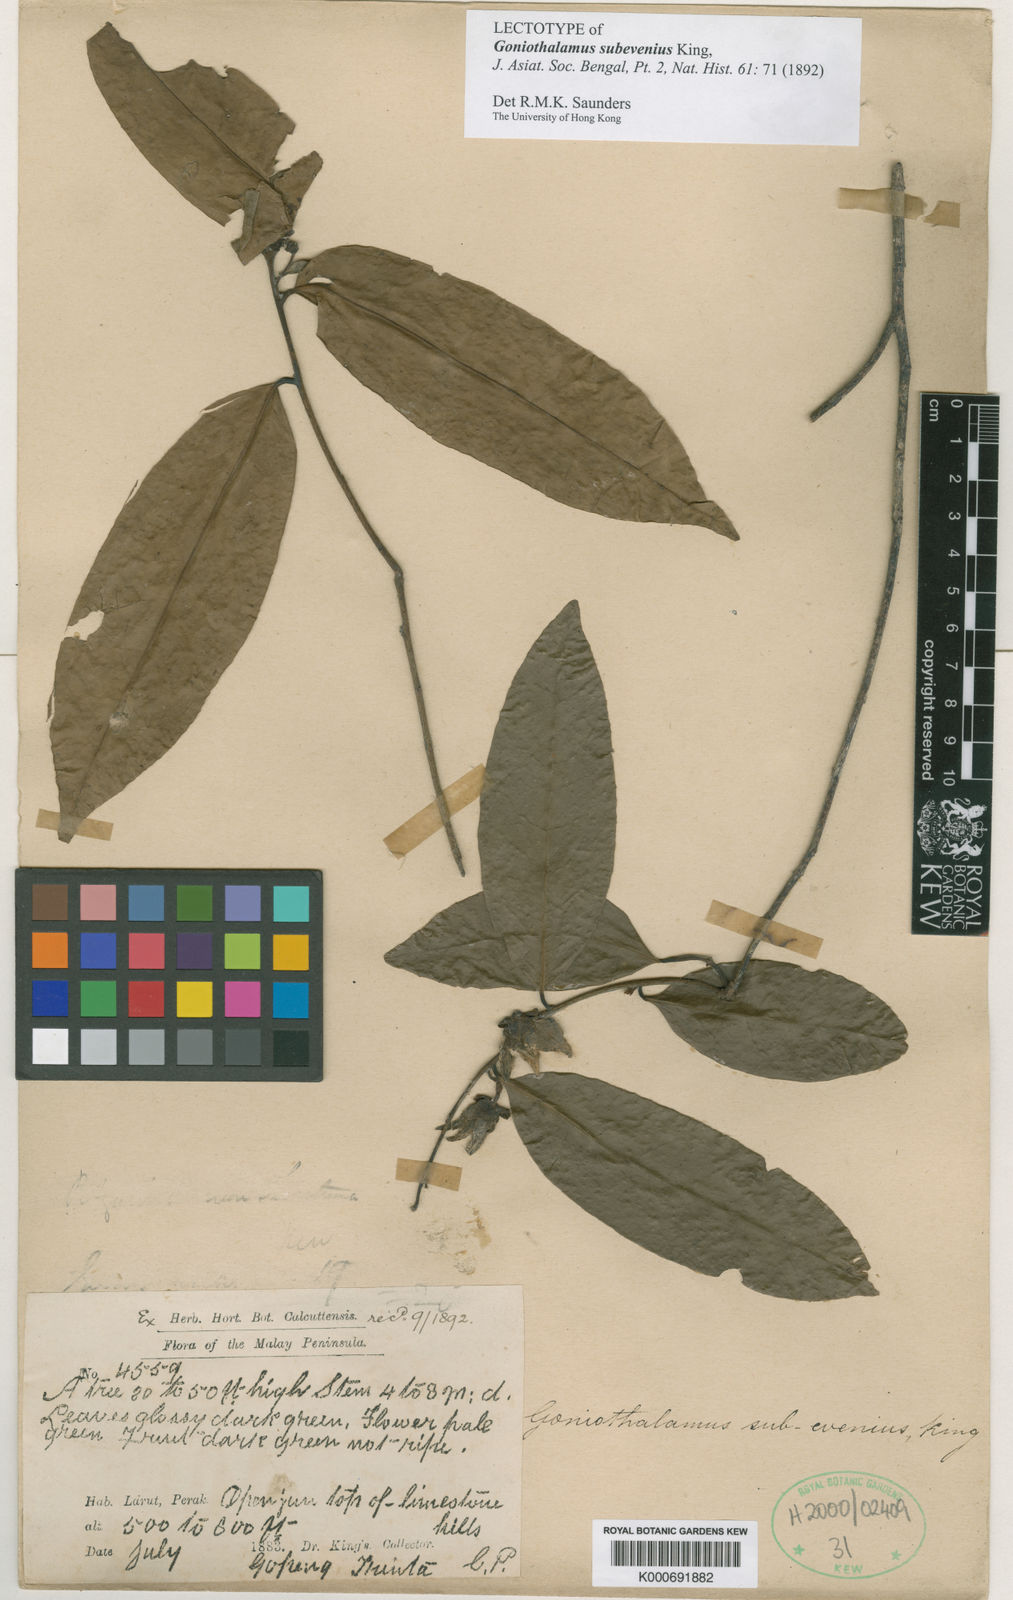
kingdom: Plantae
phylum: Tracheophyta
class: Magnoliopsida
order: Magnoliales
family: Annonaceae
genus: Goniothalamus
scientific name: Goniothalamus subevenius
